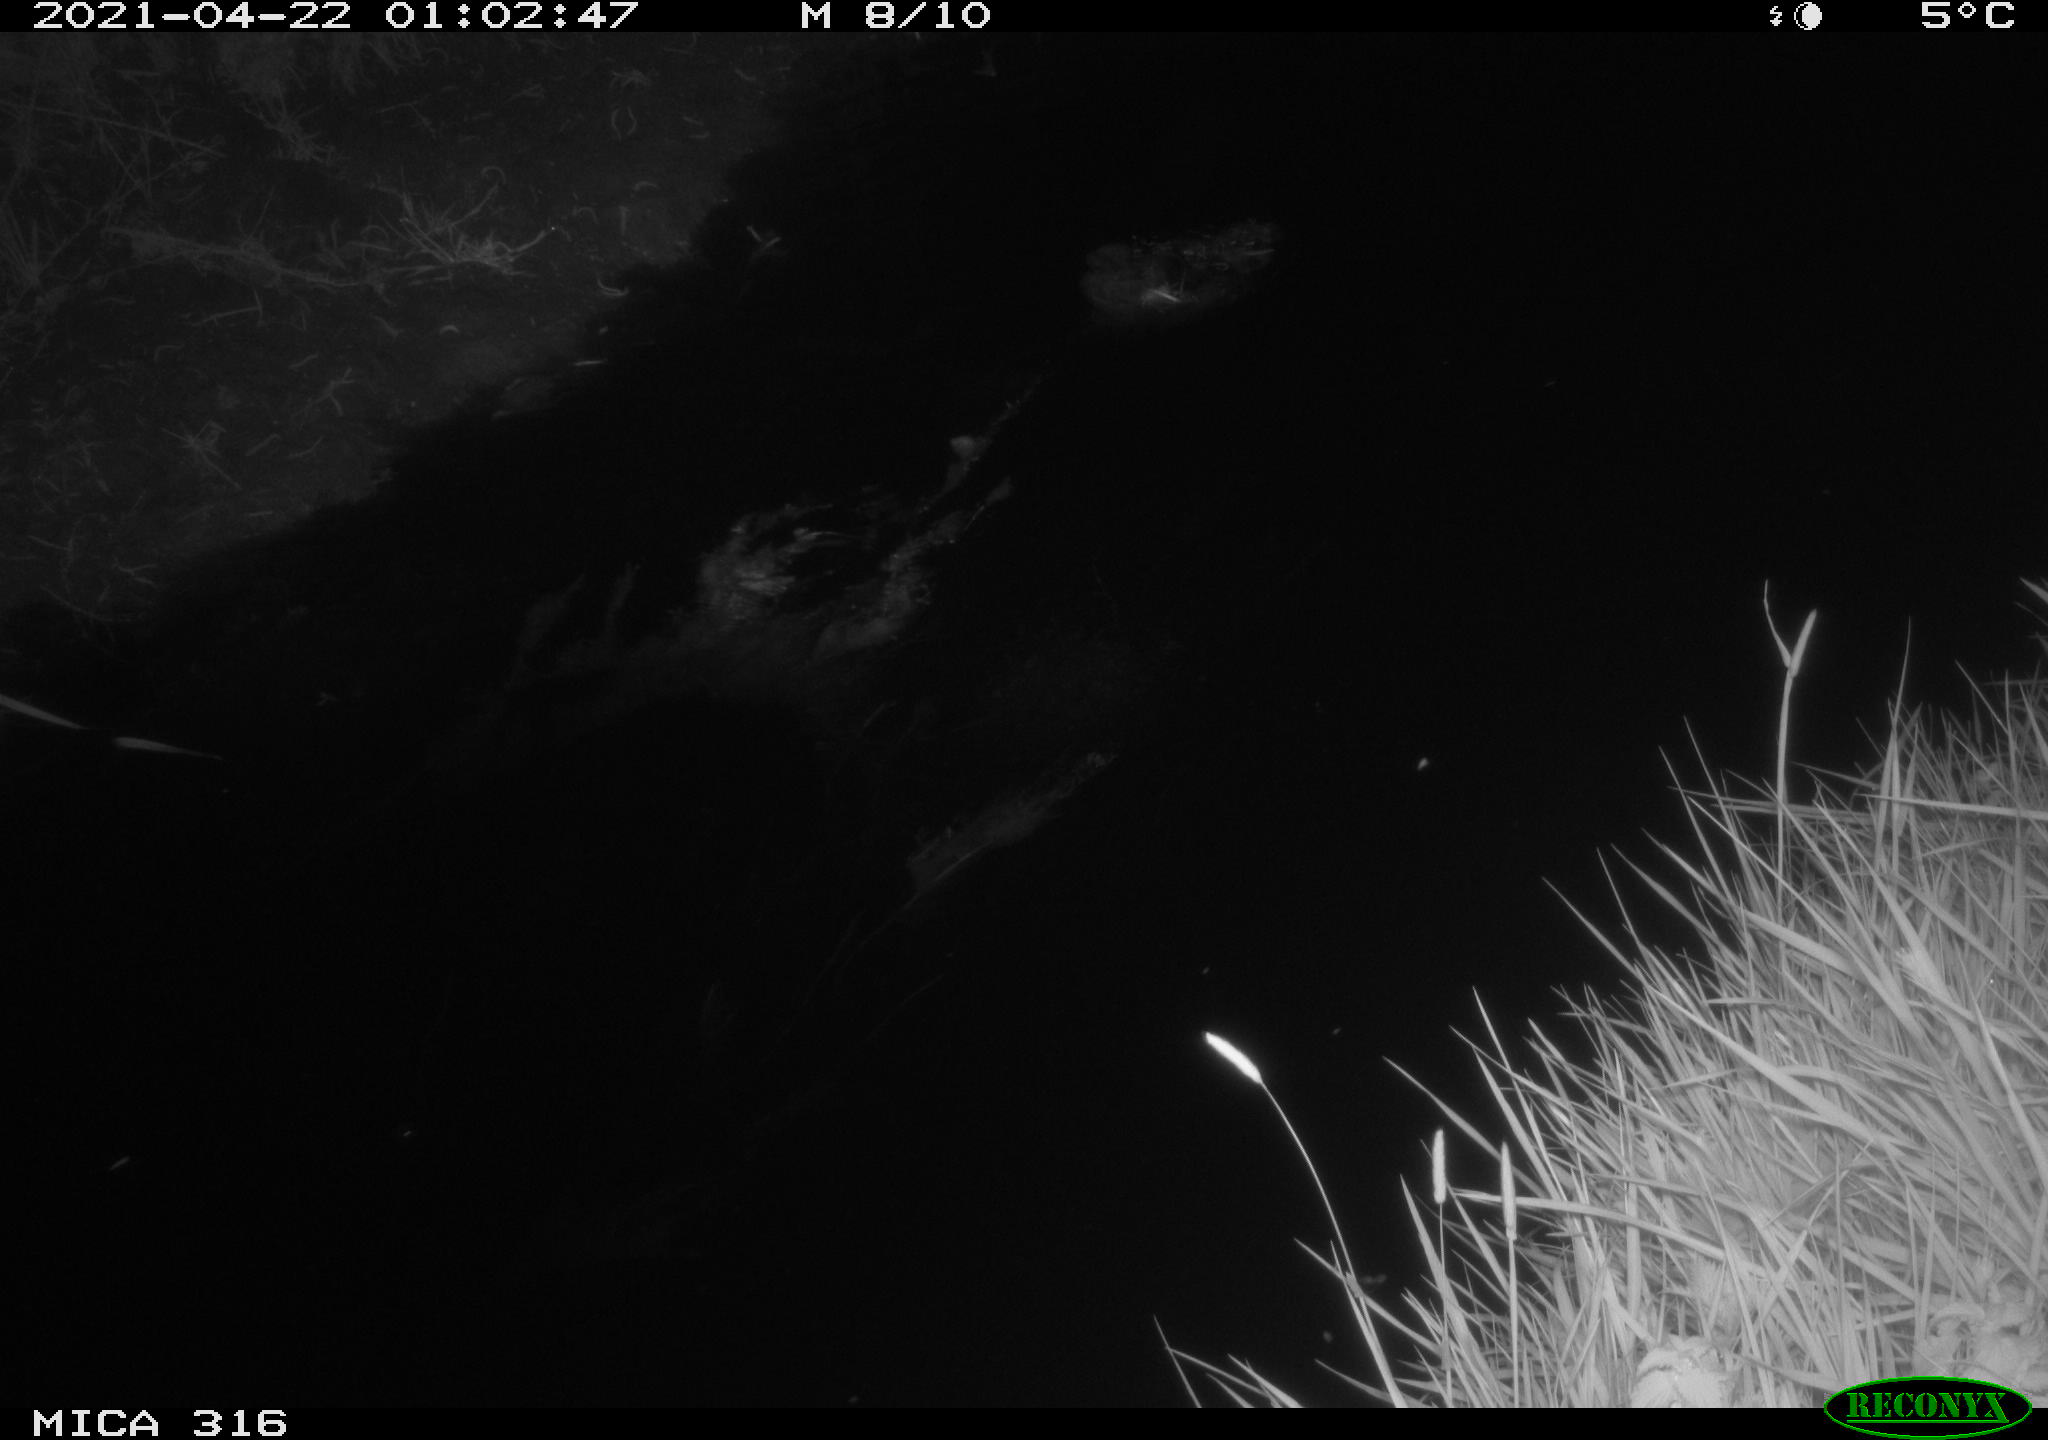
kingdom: Animalia
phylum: Chordata
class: Aves
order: Anseriformes
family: Anatidae
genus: Anas
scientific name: Anas platyrhynchos
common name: Mallard
